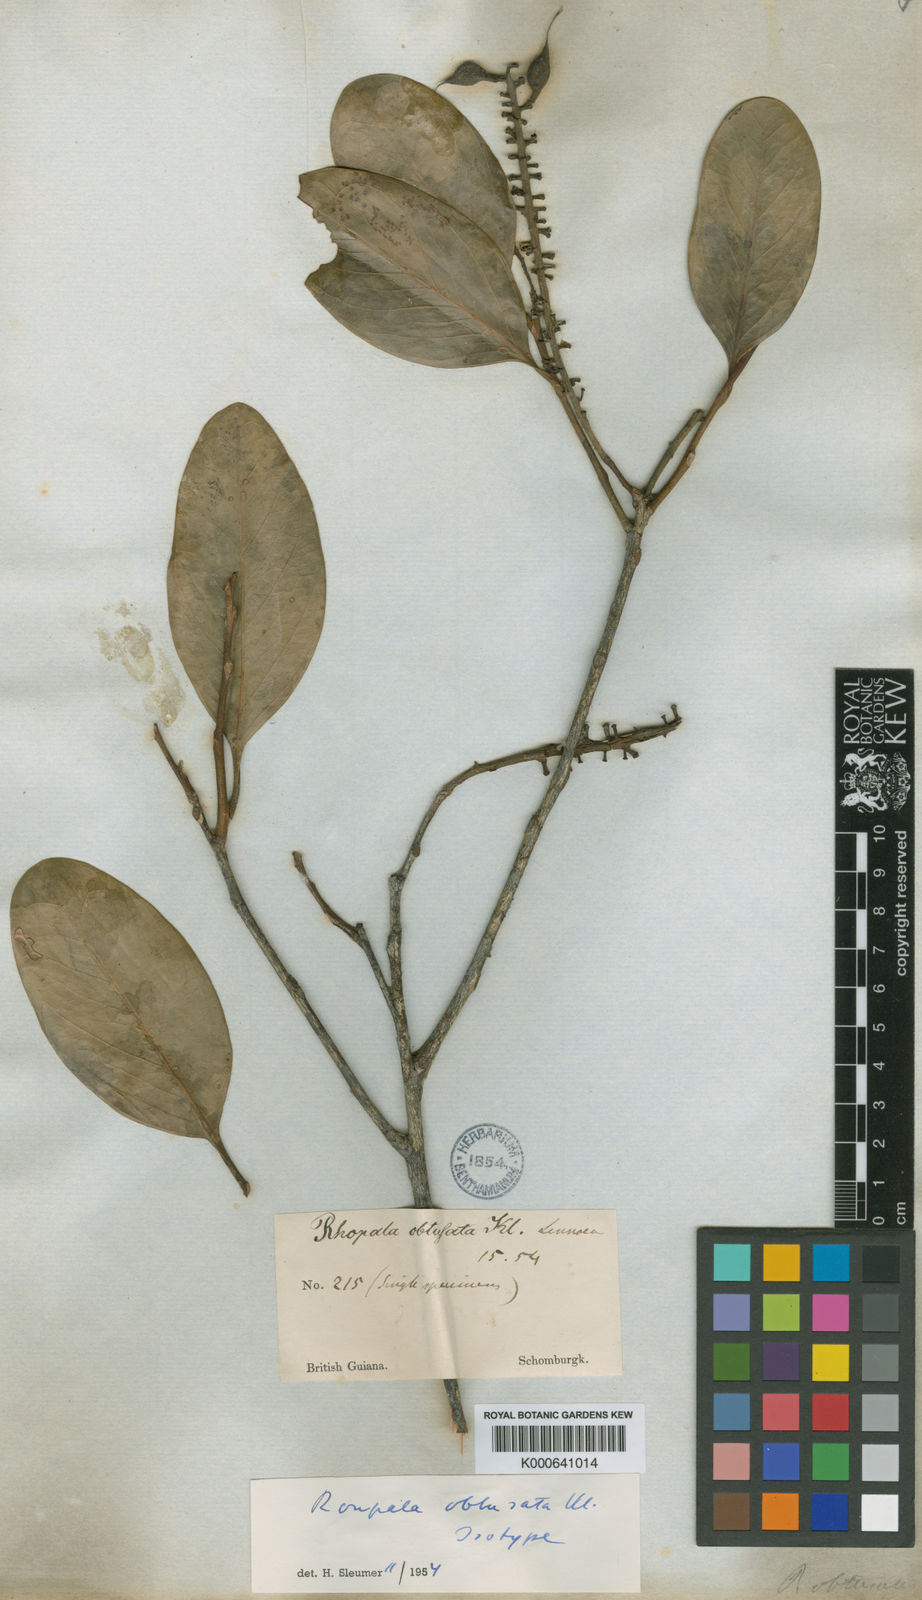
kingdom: Plantae
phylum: Tracheophyta
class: Magnoliopsida
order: Proteales
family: Proteaceae
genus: Roupala
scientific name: Roupala obtusata
